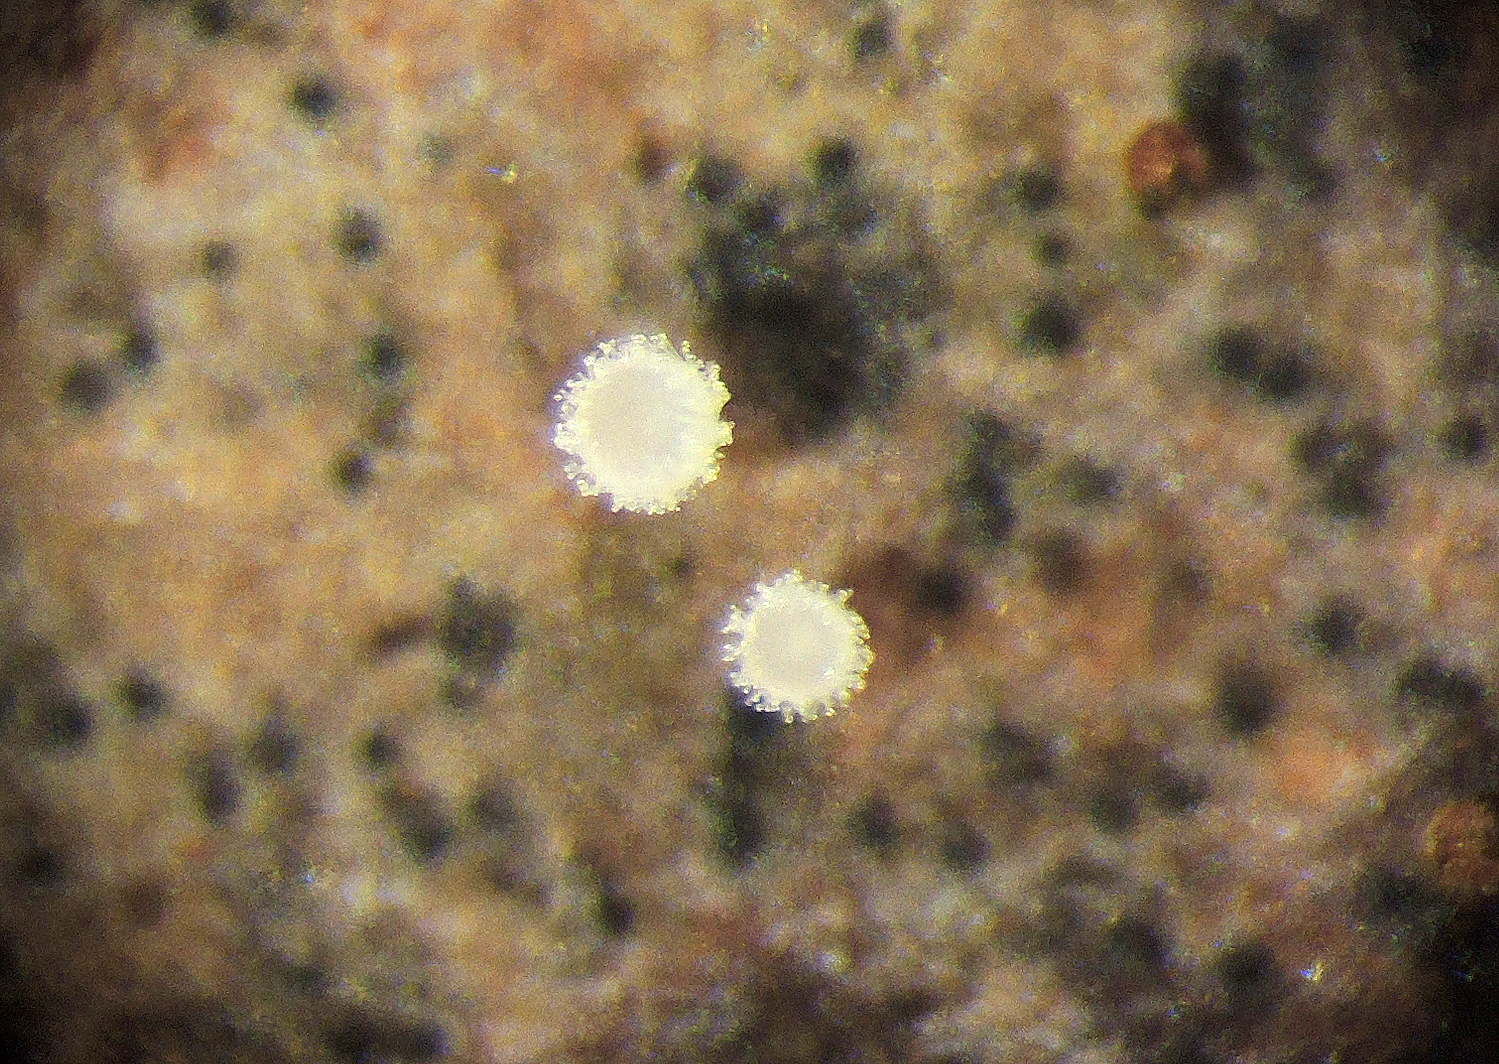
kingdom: Fungi
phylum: Ascomycota
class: Leotiomycetes
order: Helotiales
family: Lachnaceae
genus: Lachnum
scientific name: Lachnum rhytismatis
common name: blad-frynseskive
